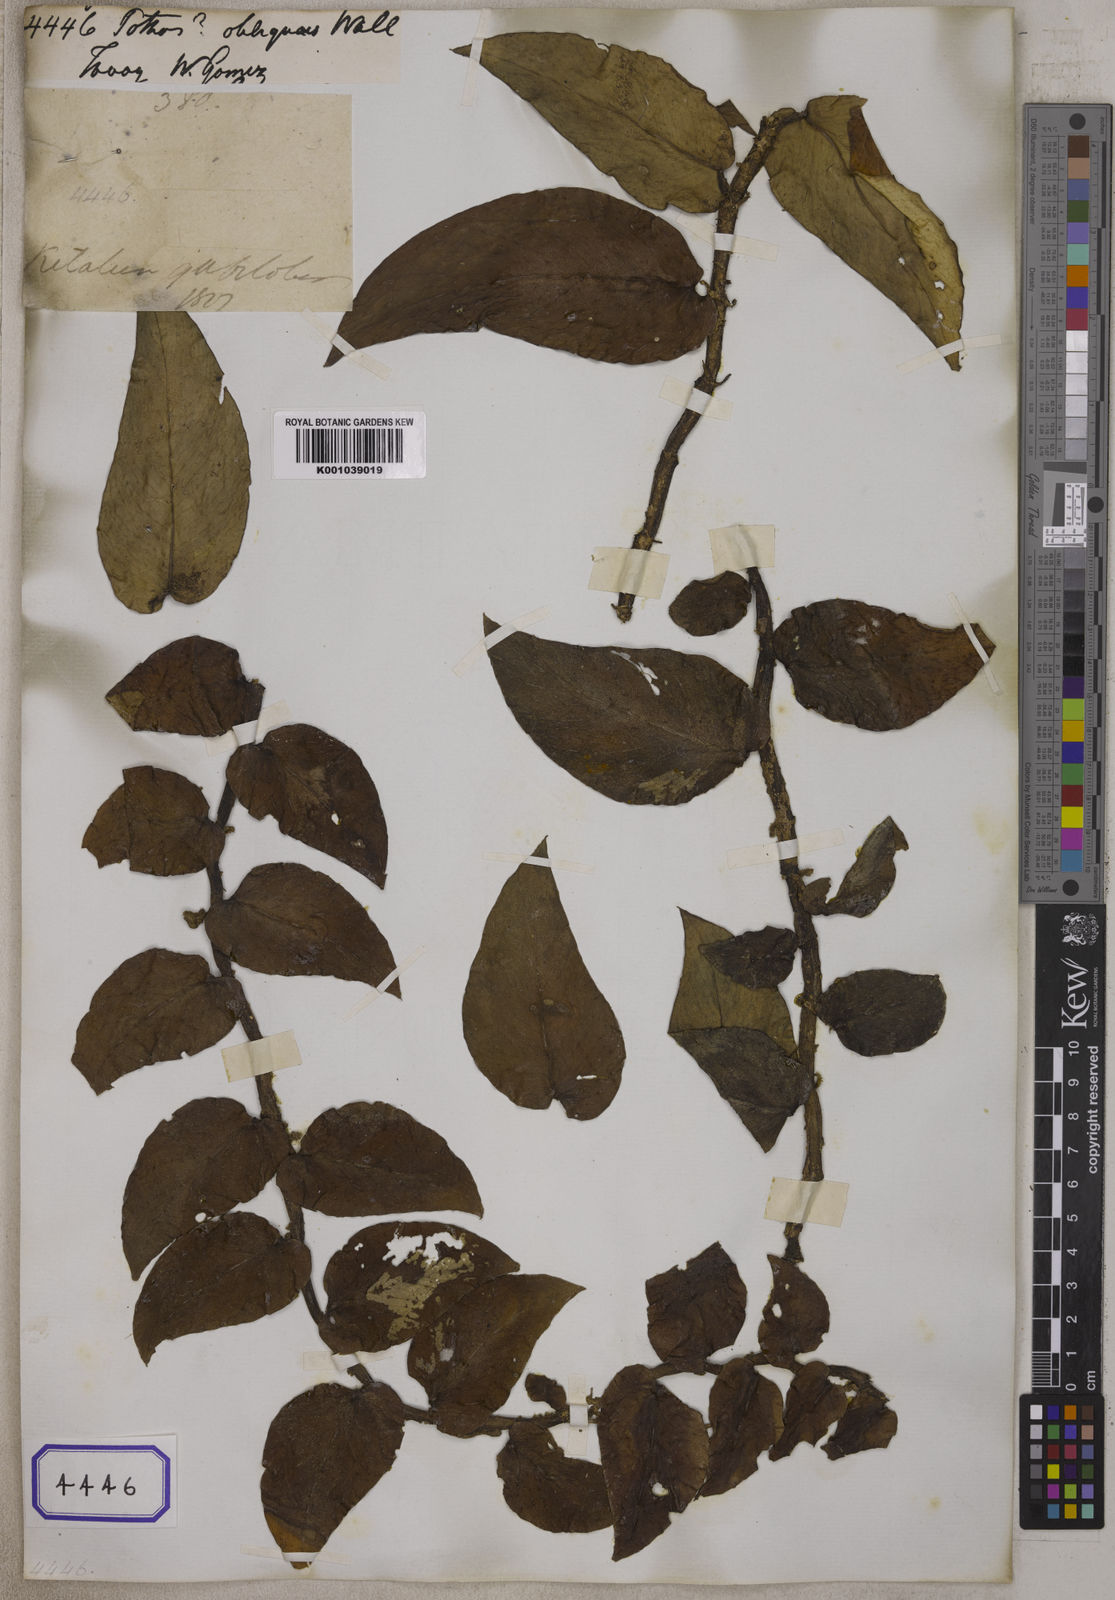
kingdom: Plantae
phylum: Tracheophyta
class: Liliopsida
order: Alismatales
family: Araceae
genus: Pothos
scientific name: Pothos
